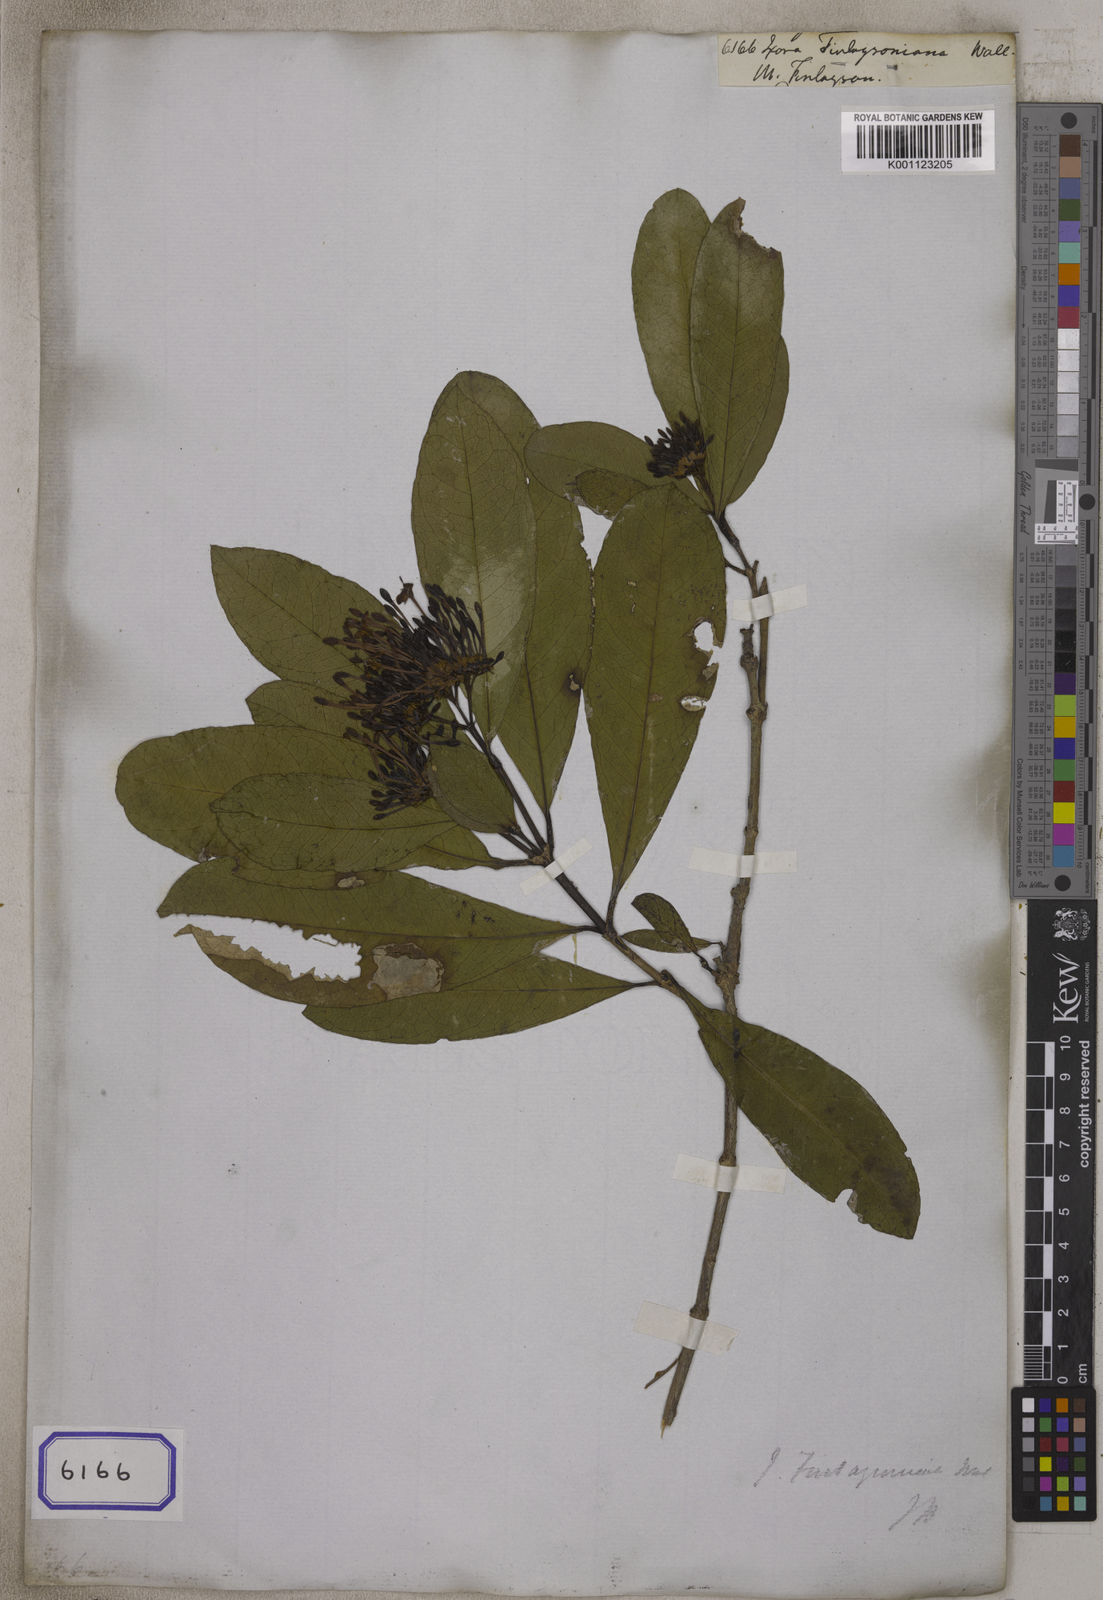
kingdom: Plantae
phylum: Tracheophyta
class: Magnoliopsida
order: Gentianales
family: Rubiaceae
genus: Ixora
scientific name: Ixora
